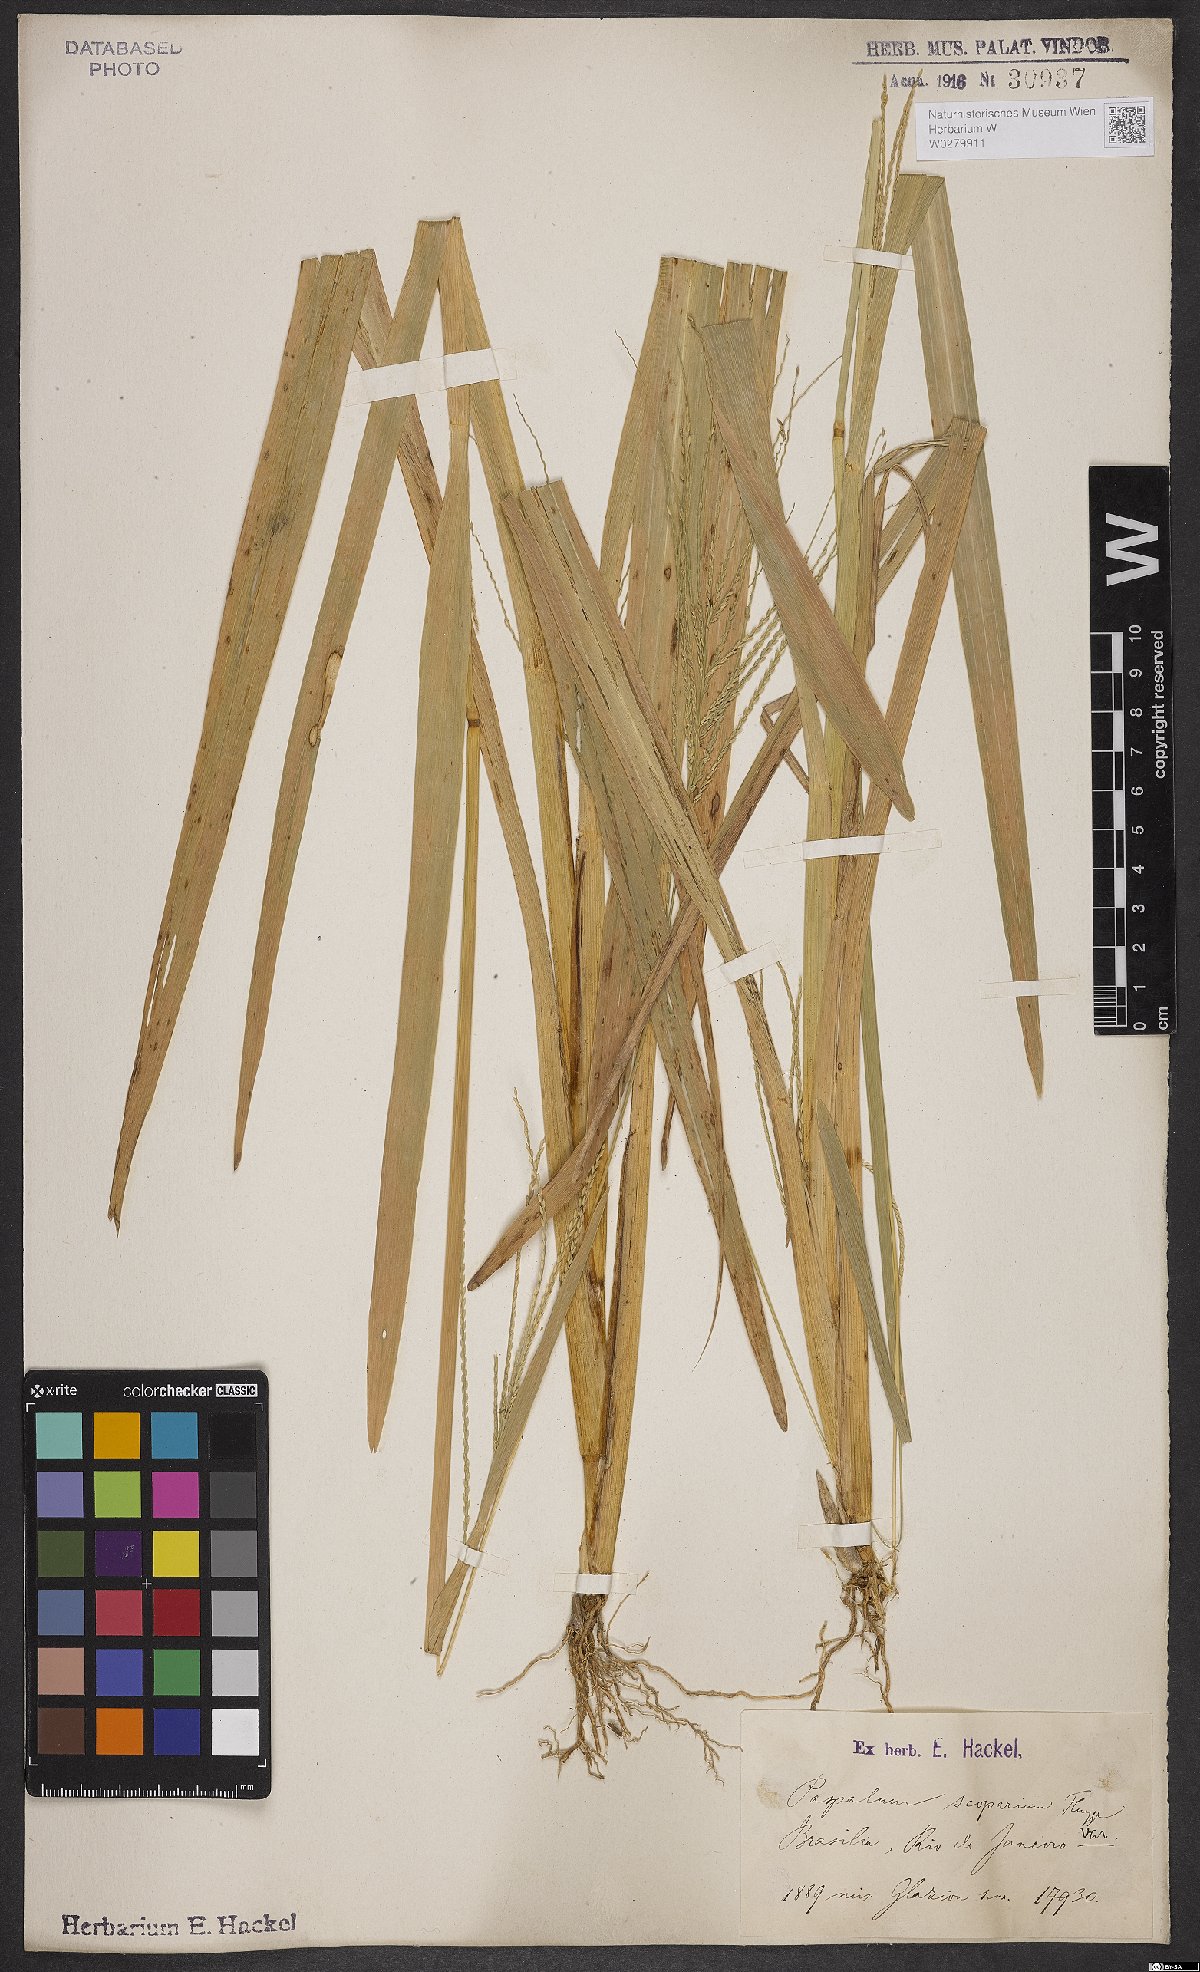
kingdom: Plantae
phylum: Tracheophyta
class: Liliopsida
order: Poales
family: Poaceae
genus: Axonopus
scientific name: Axonopus scoparius
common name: Imperial grass
